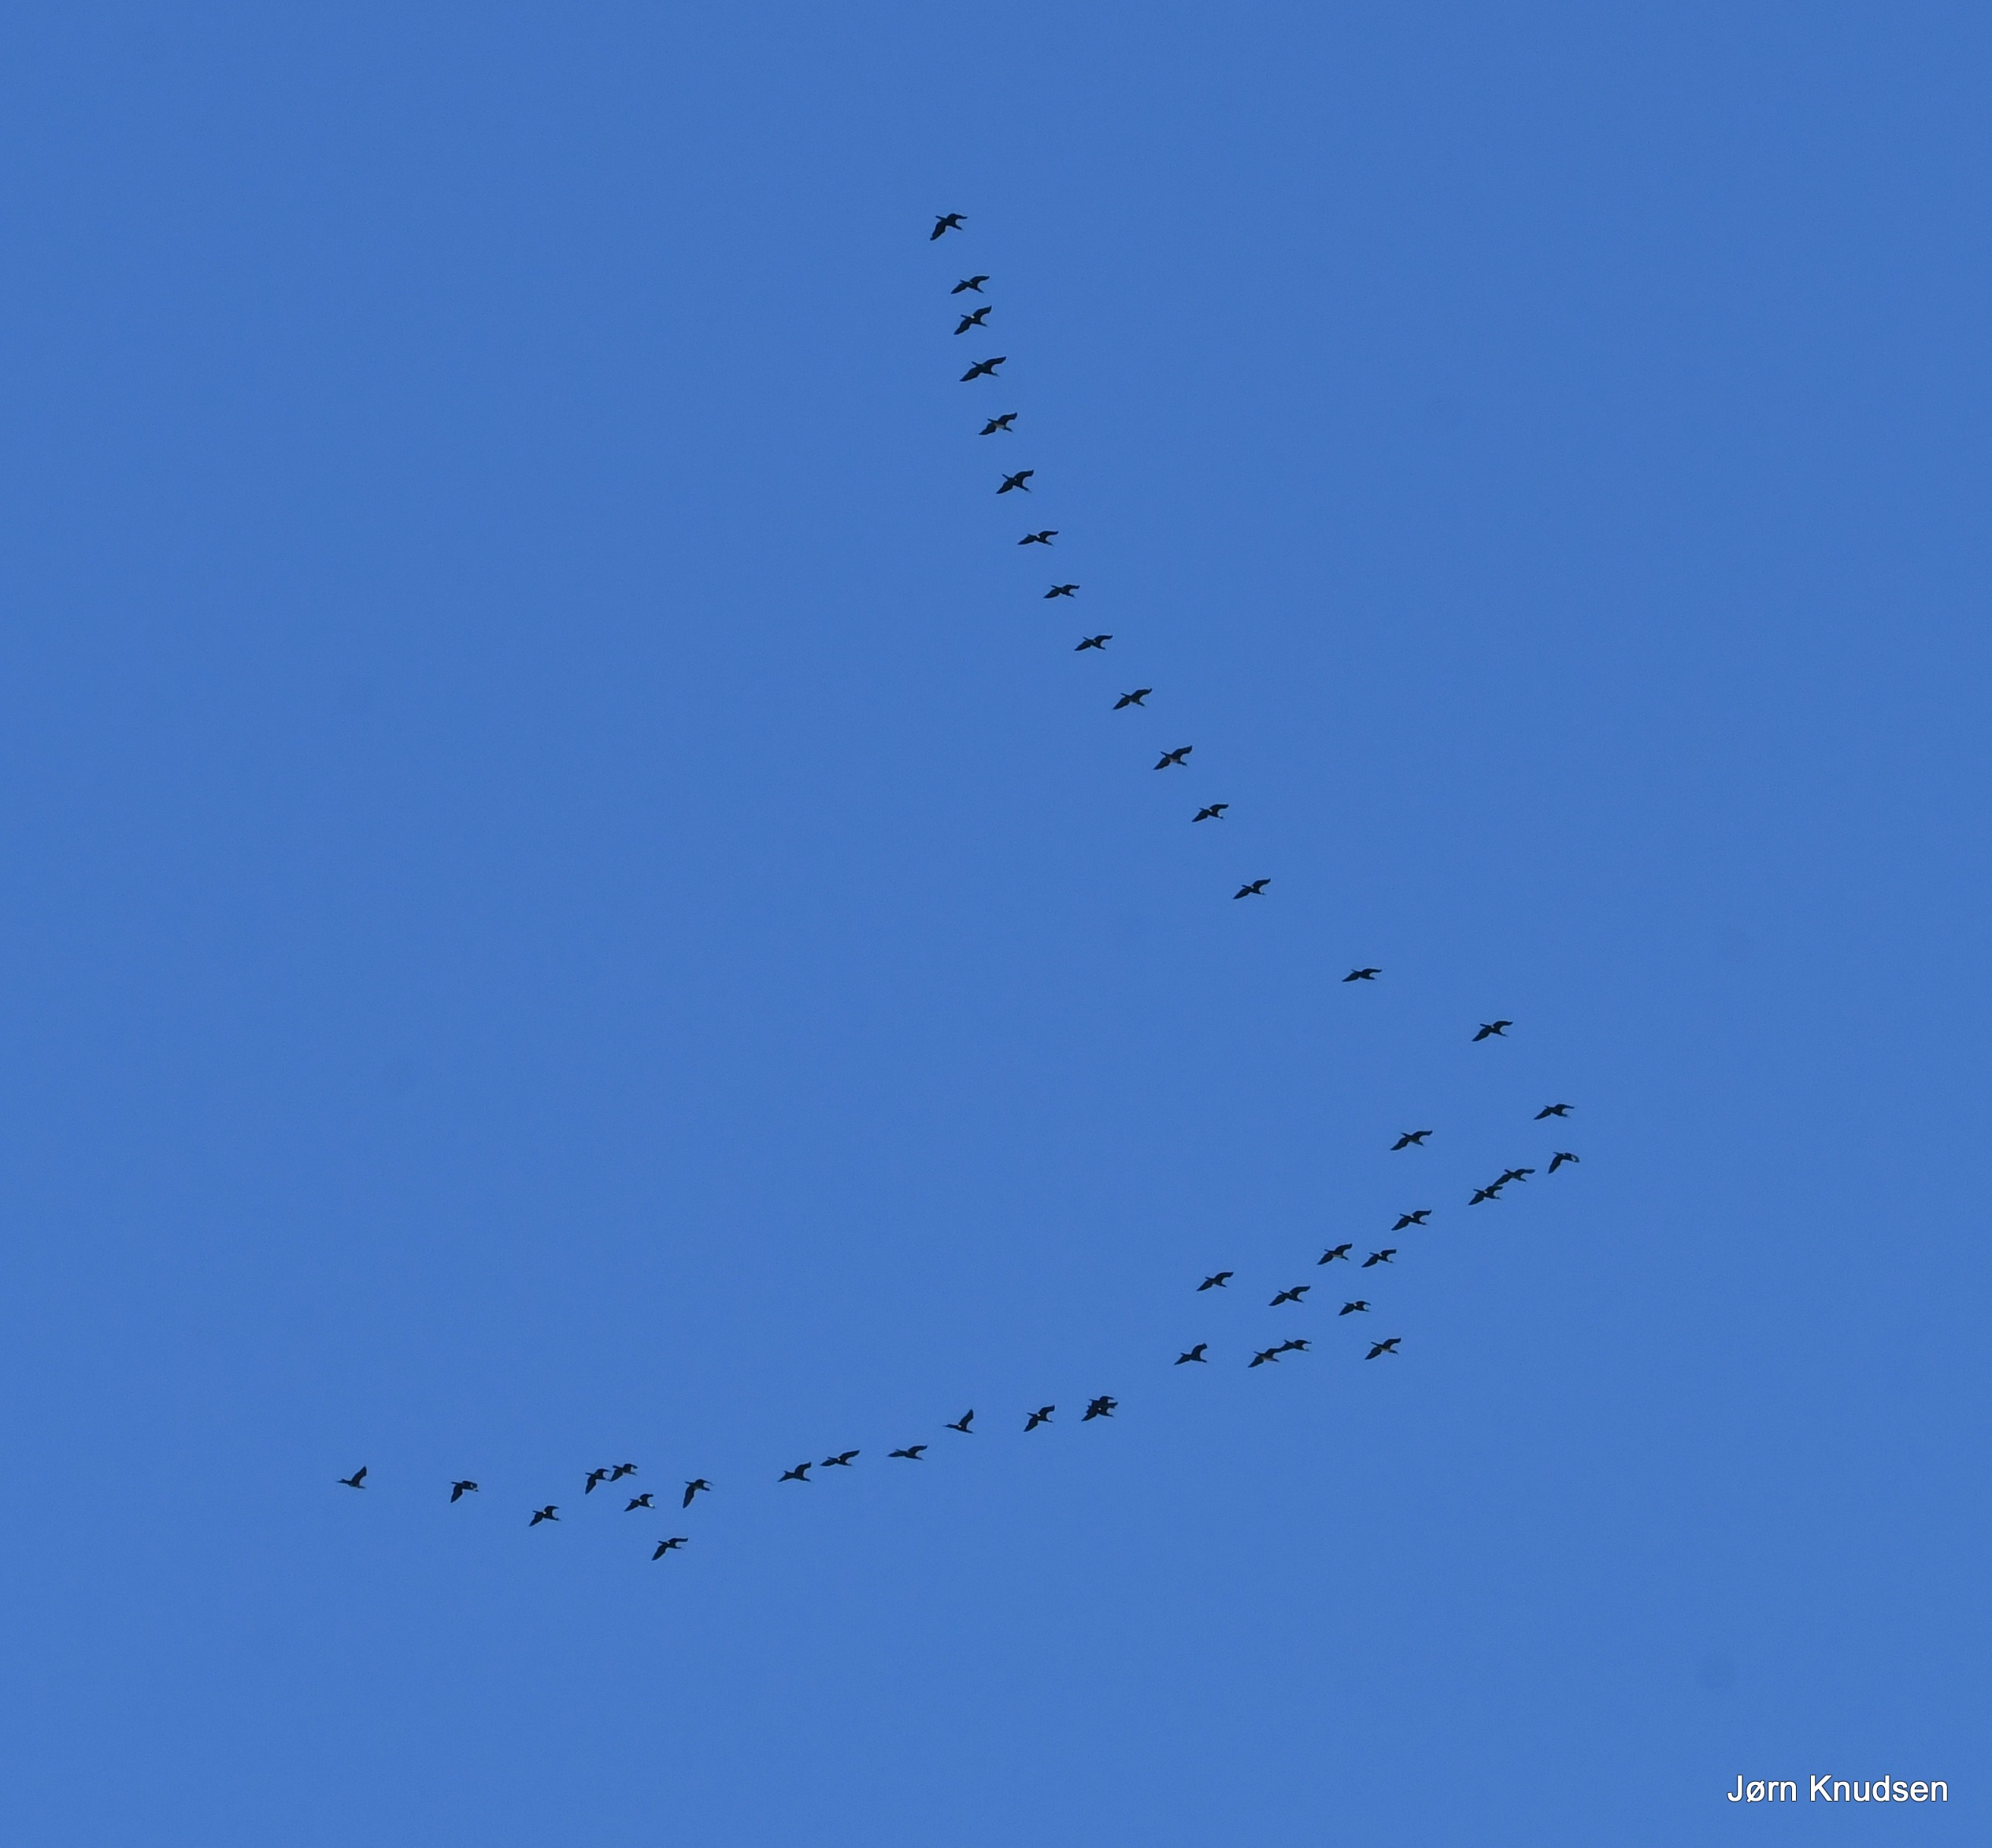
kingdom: Animalia
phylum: Chordata
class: Aves
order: Suliformes
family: Phalacrocoracidae
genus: Phalacrocorax
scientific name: Phalacrocorax carbo
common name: Skarv
